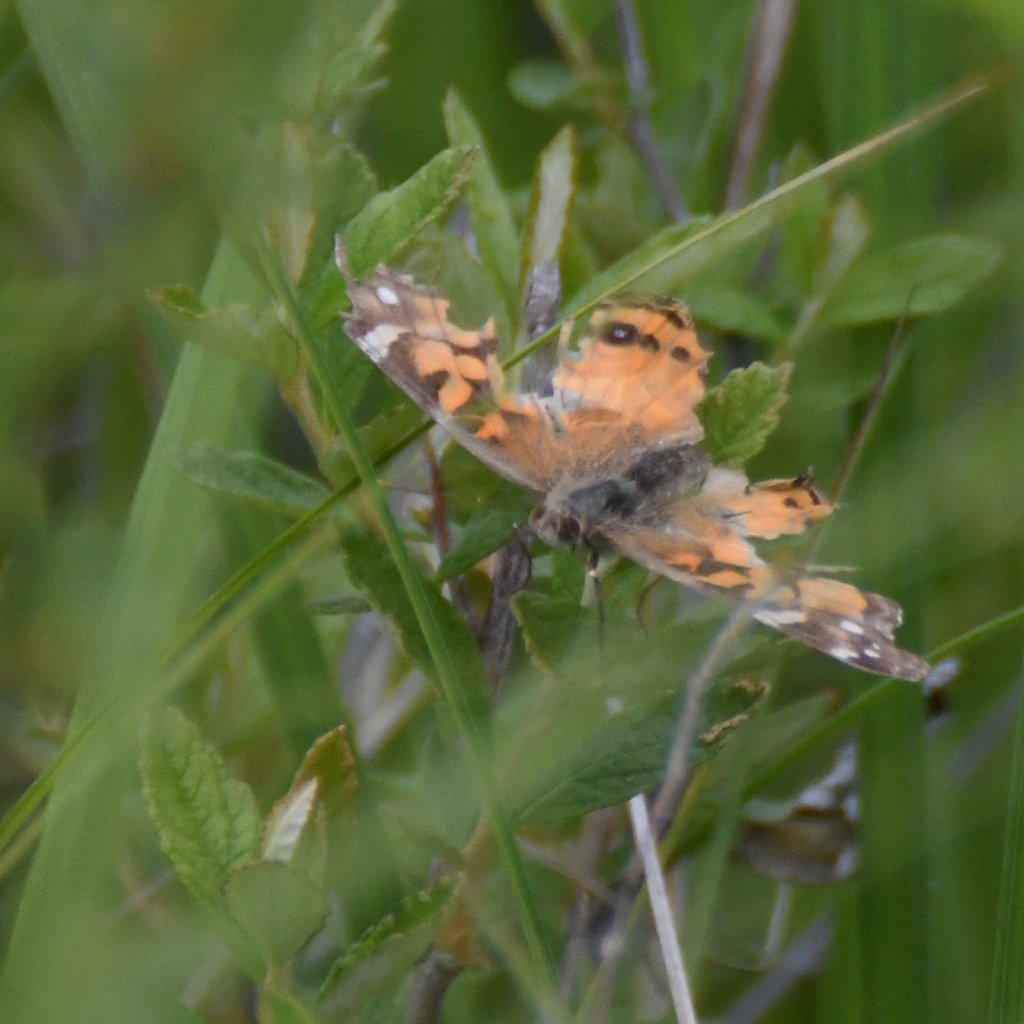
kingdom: Animalia
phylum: Arthropoda
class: Insecta
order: Lepidoptera
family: Nymphalidae
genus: Vanessa
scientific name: Vanessa virginiensis
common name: American Lady
